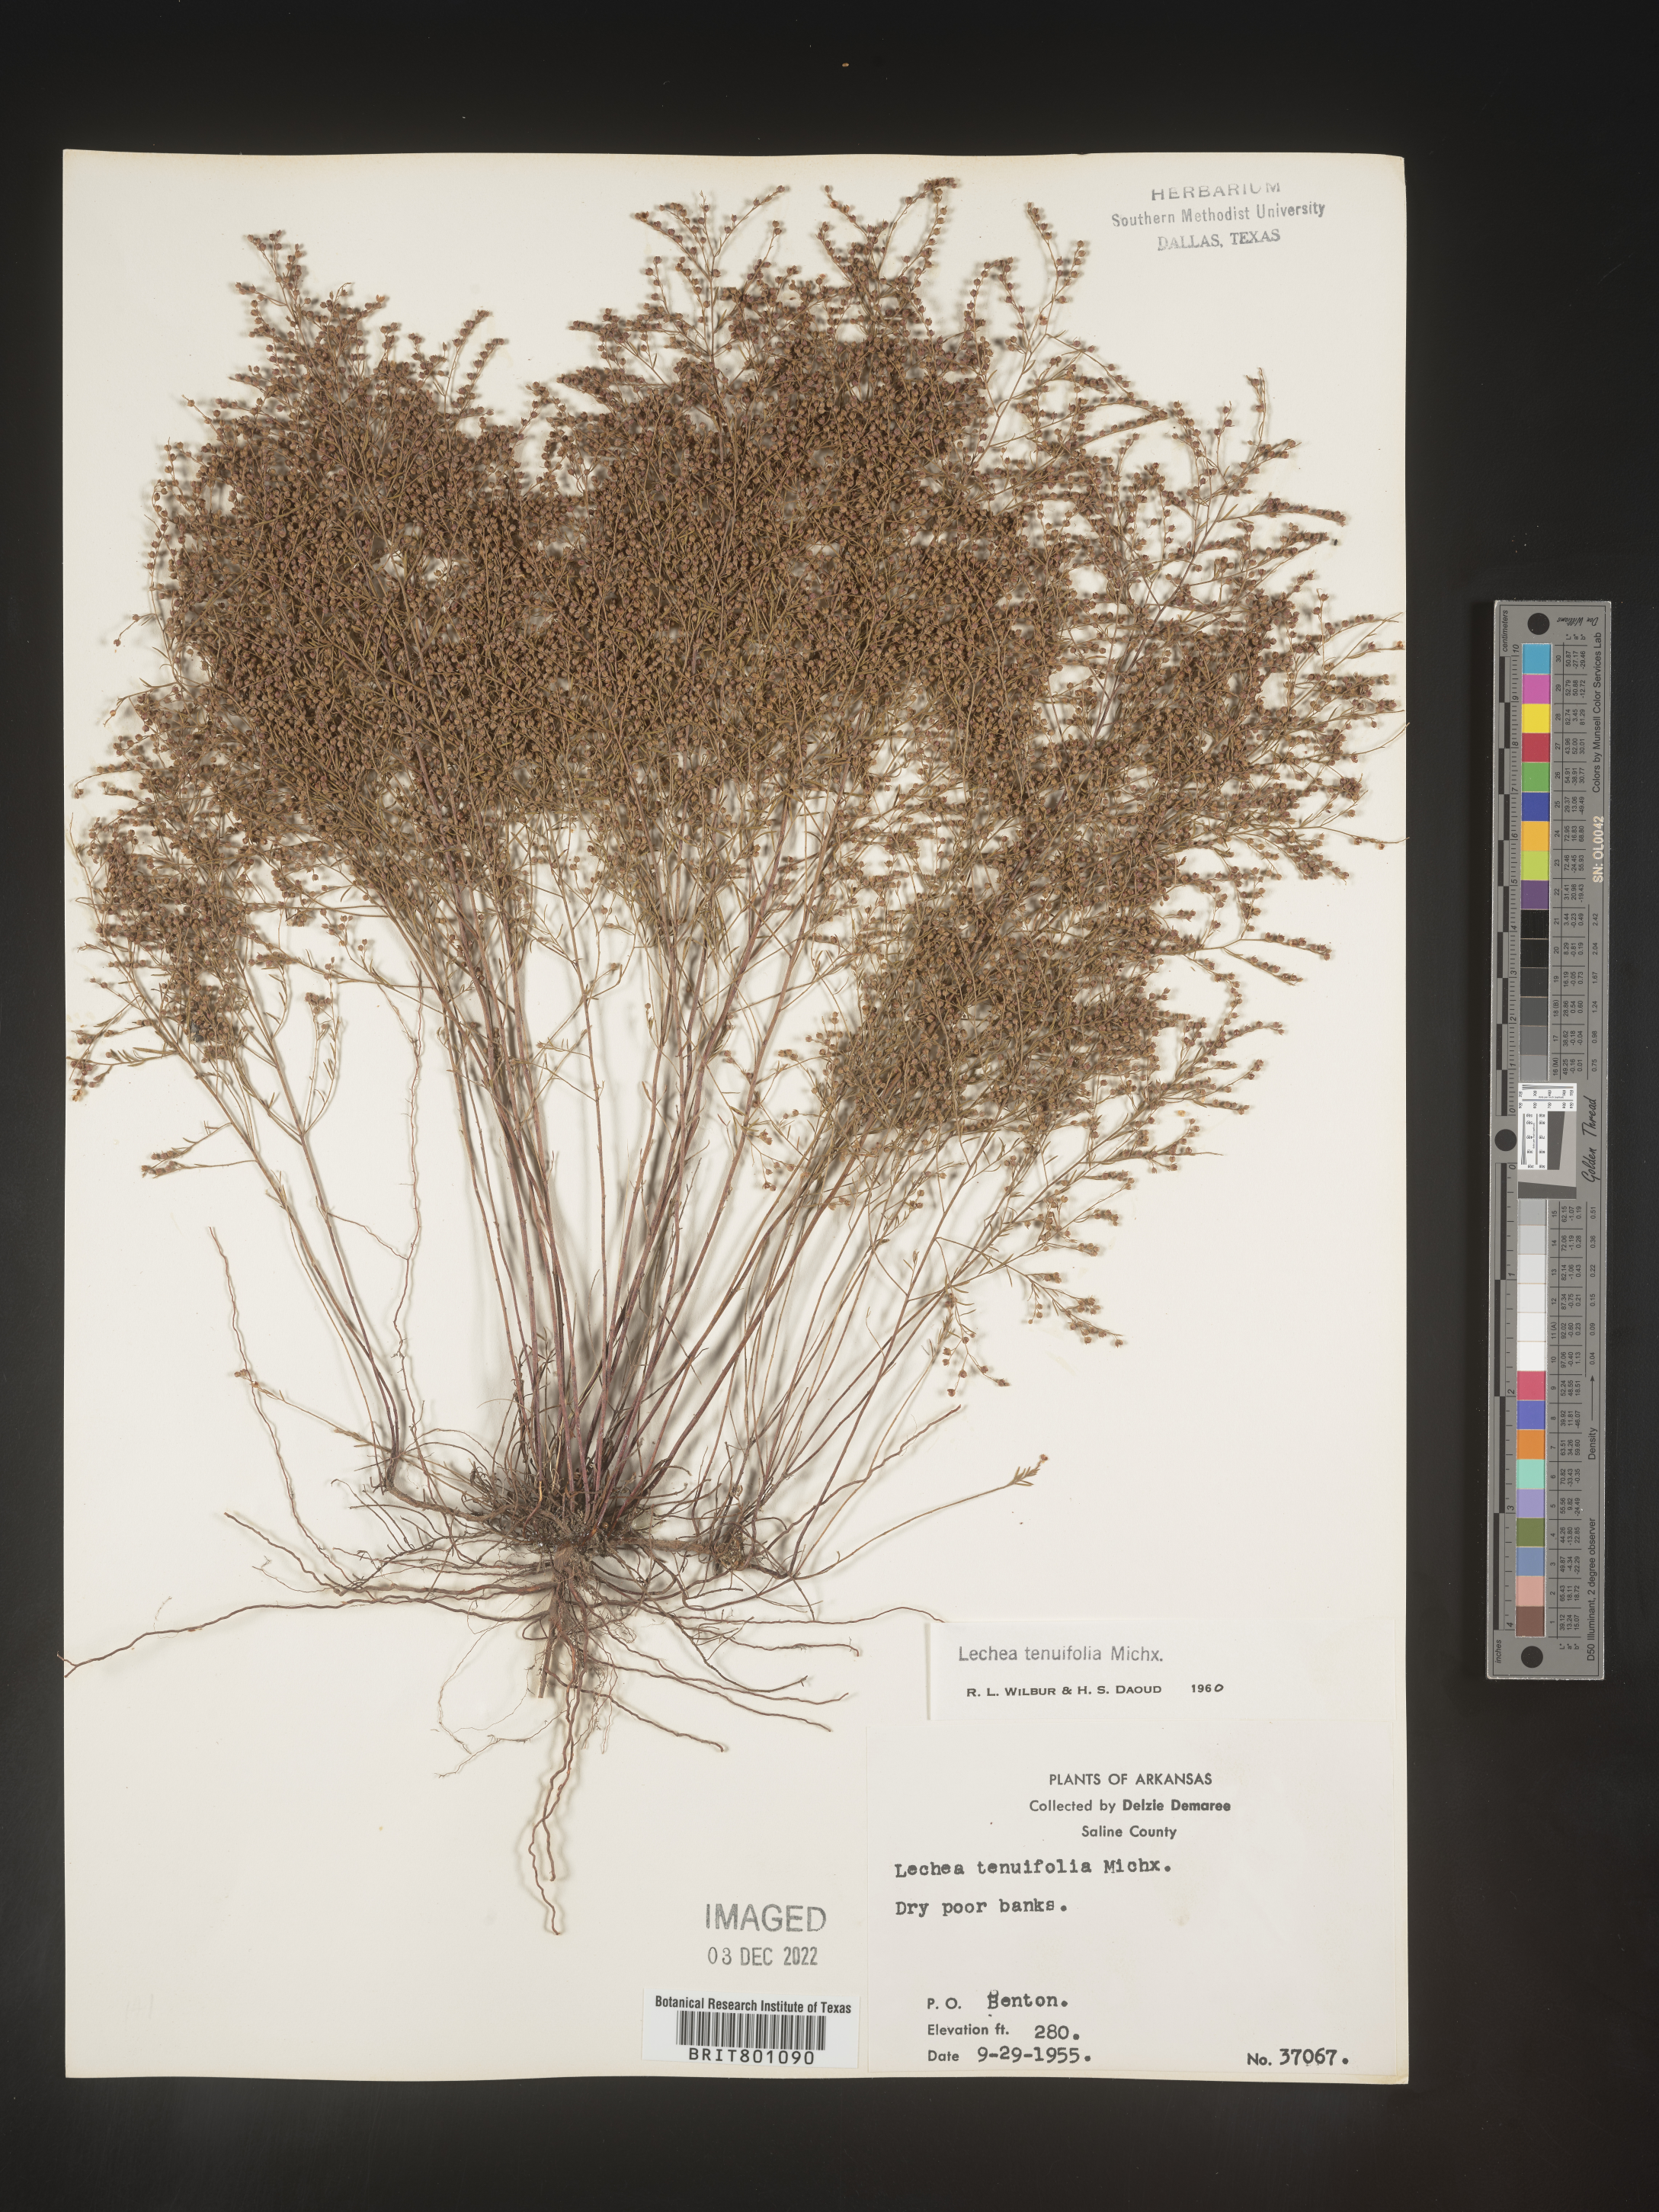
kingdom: Plantae
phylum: Tracheophyta
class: Magnoliopsida
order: Malvales
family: Cistaceae
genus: Lechea
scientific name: Lechea tenuifolia
